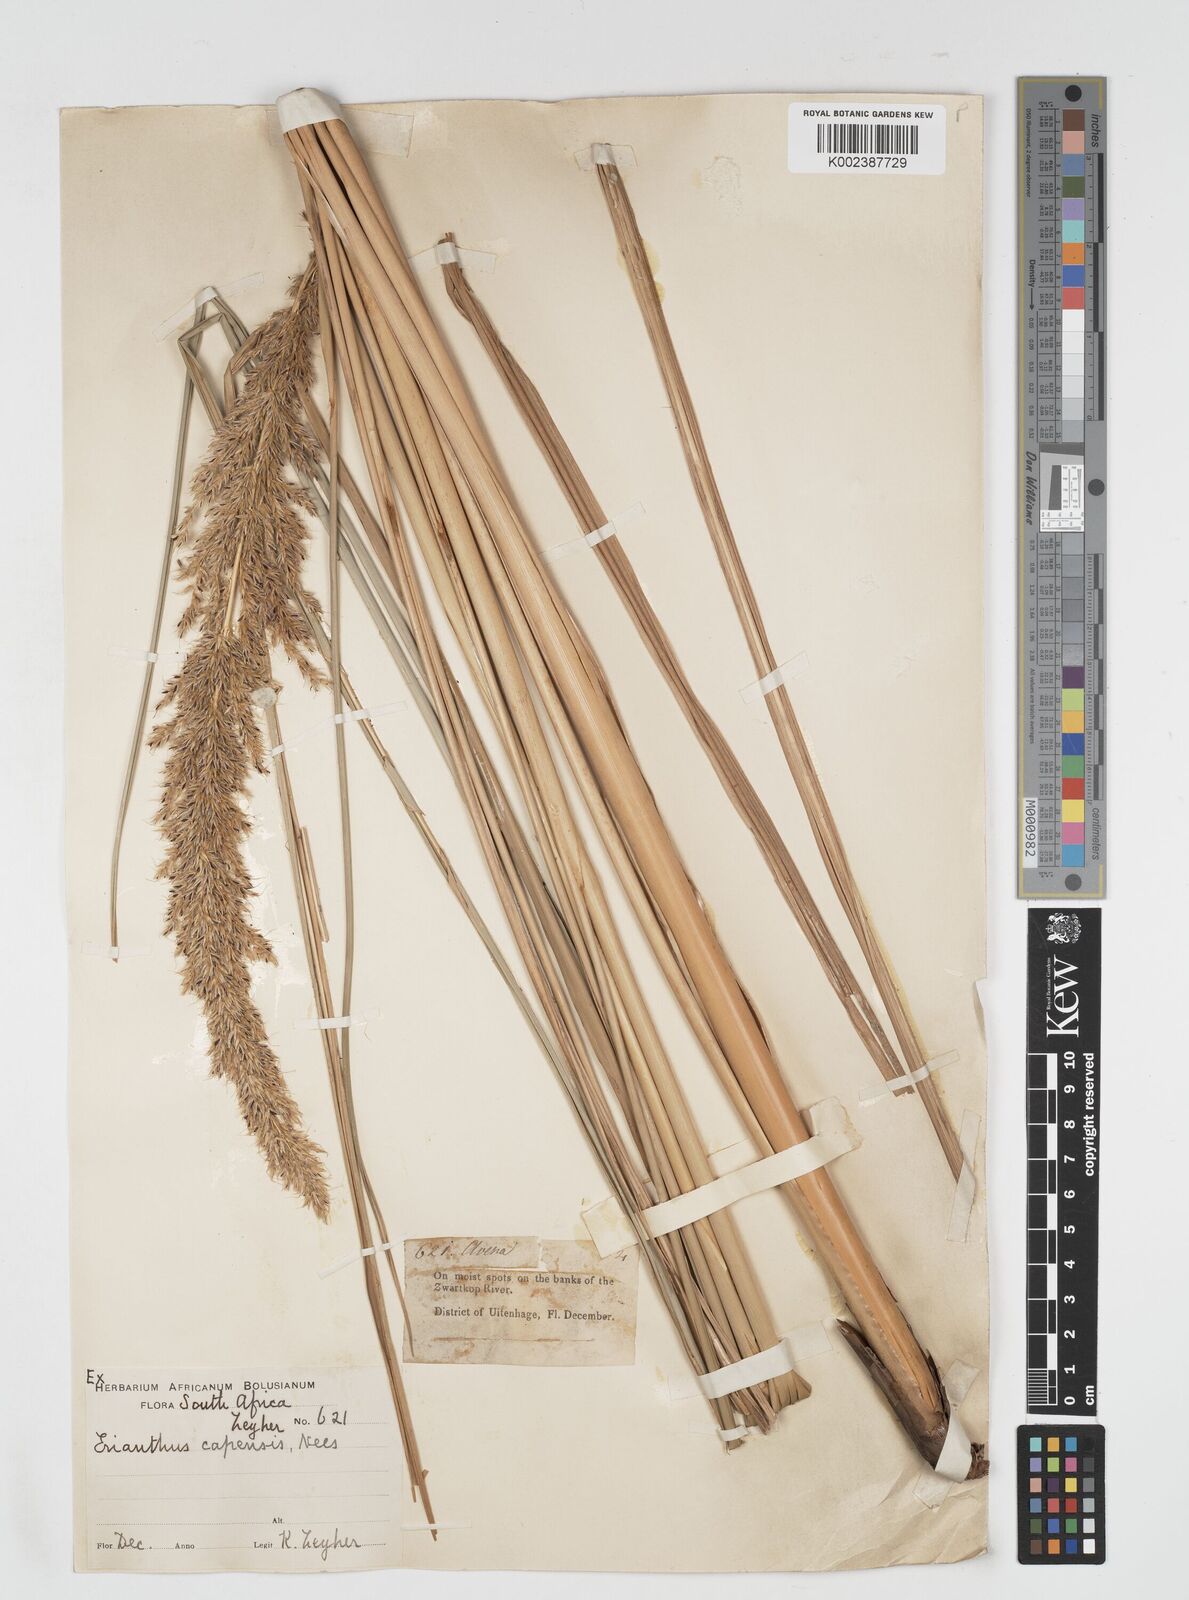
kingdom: Plantae
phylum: Tracheophyta
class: Liliopsida
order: Poales
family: Poaceae
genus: Miscanthus
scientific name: Miscanthus ecklonii
